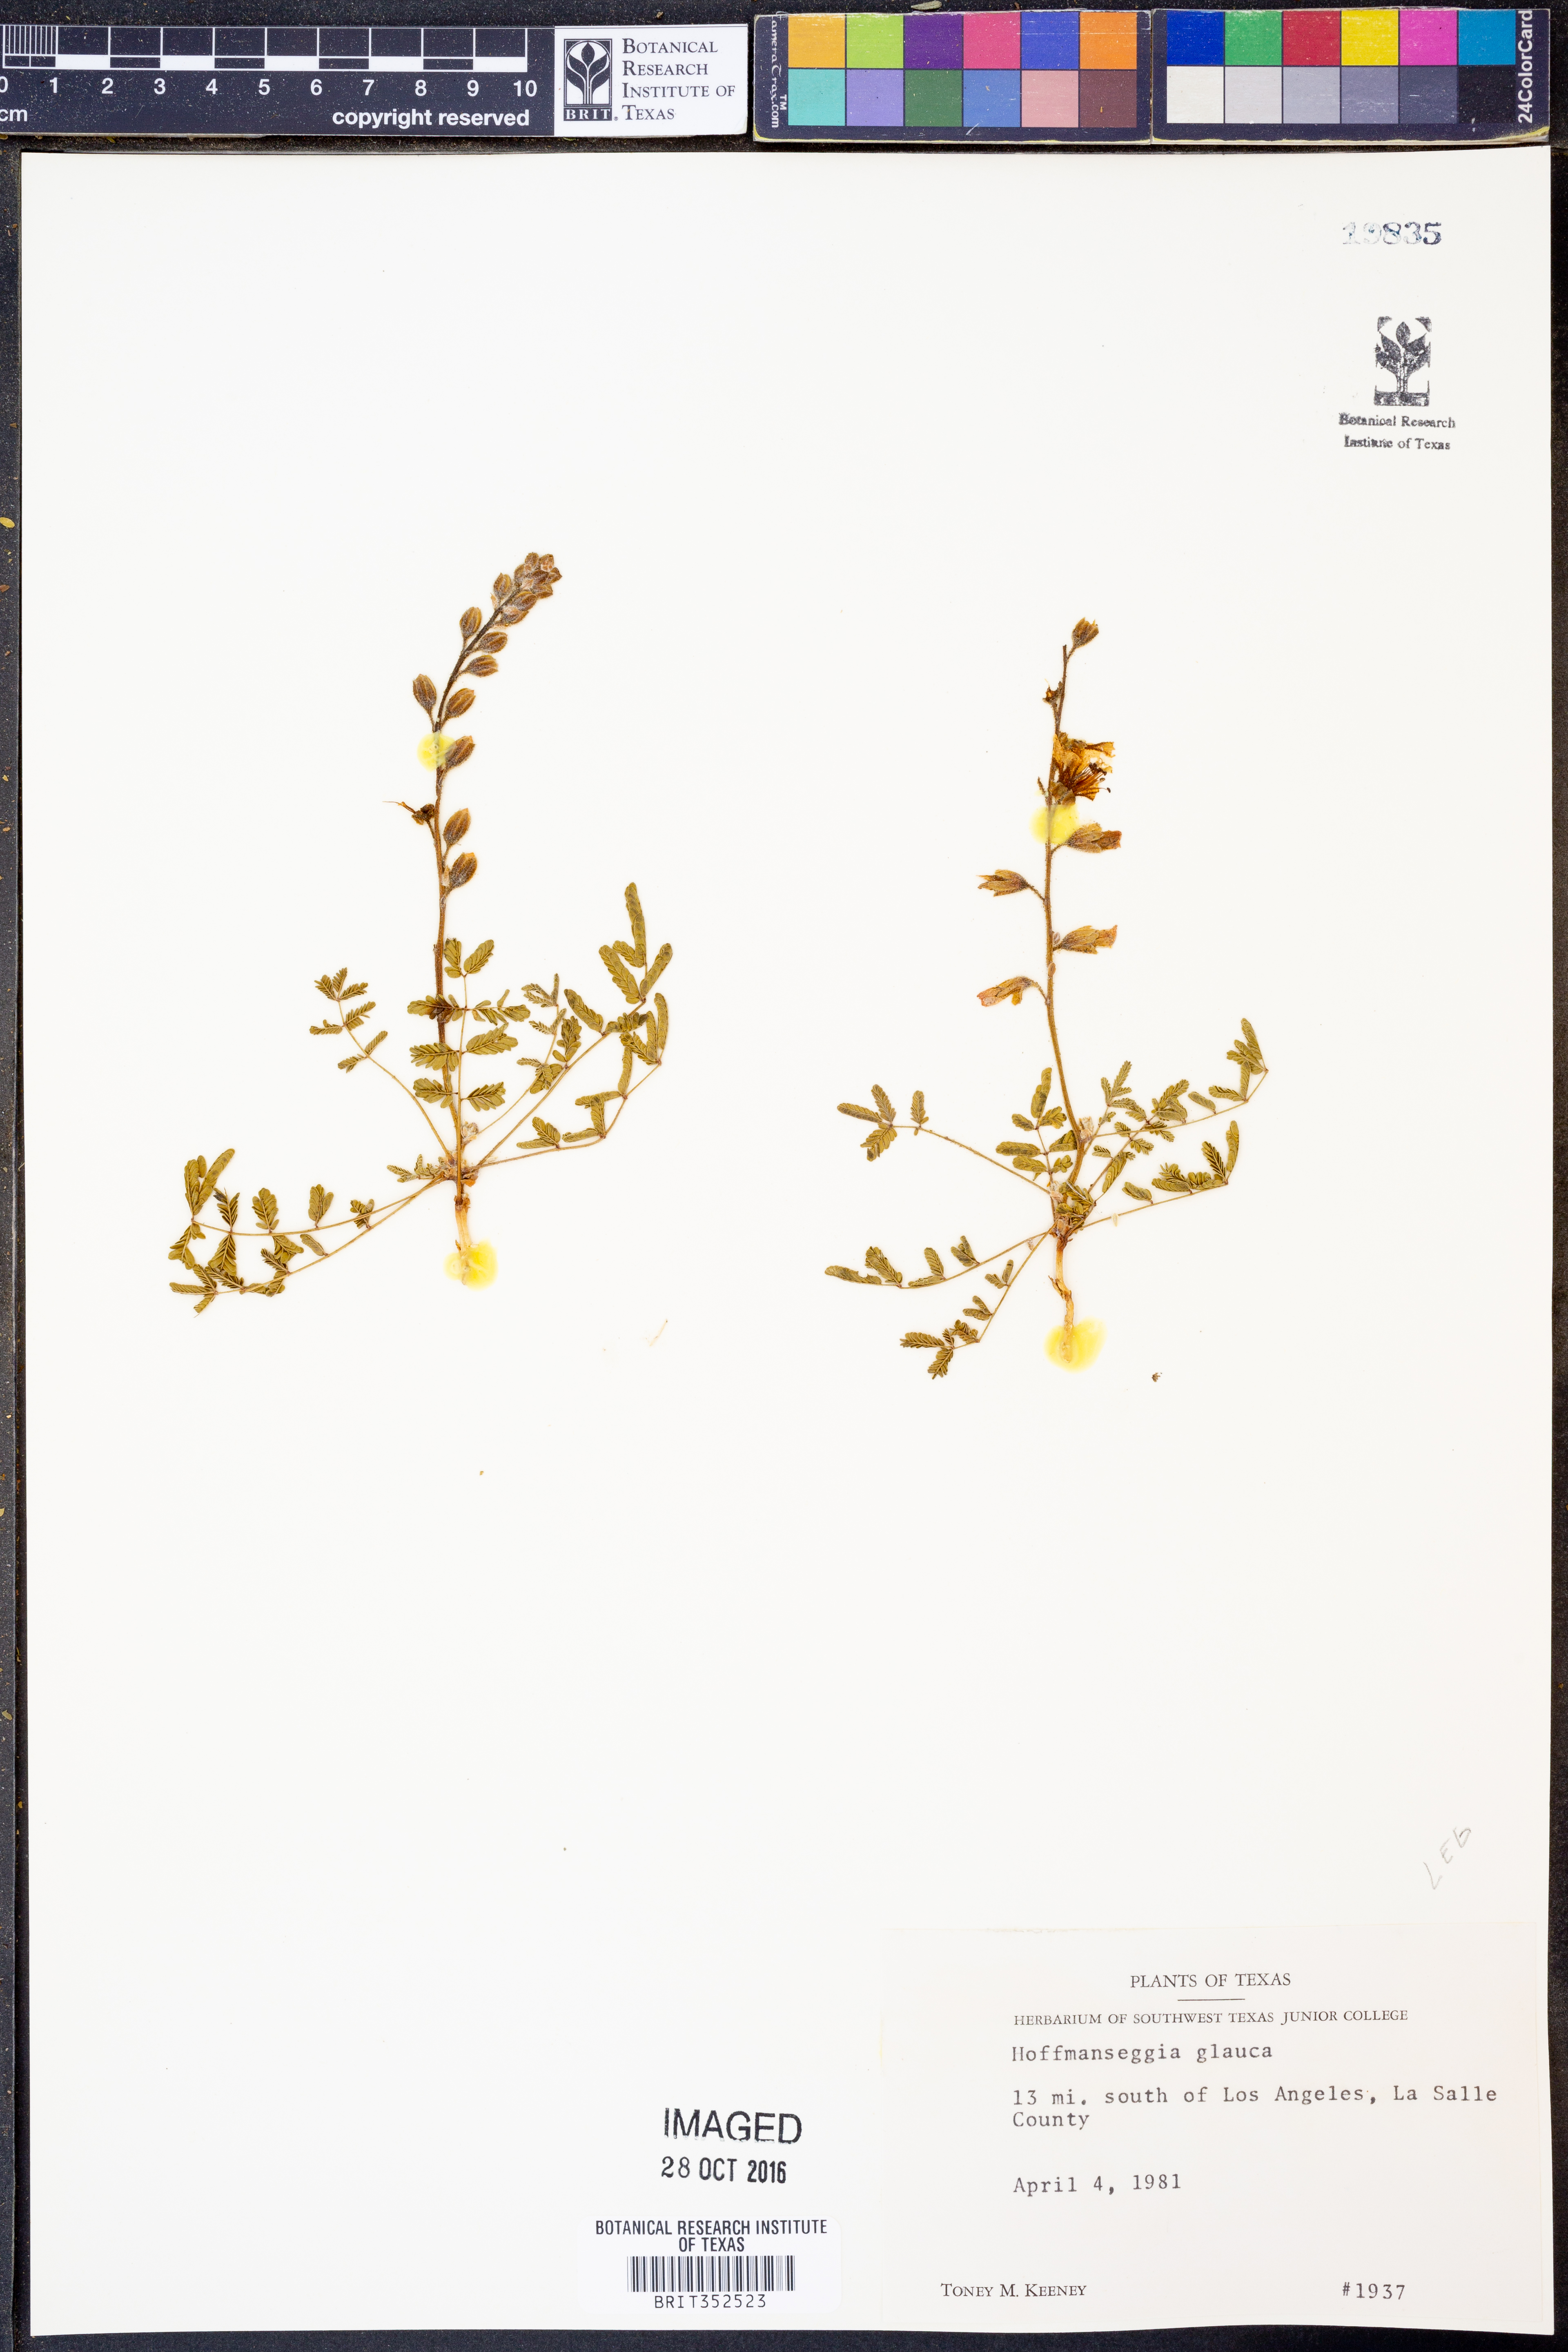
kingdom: Plantae
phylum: Tracheophyta
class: Magnoliopsida
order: Fabales
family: Fabaceae
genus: Hoffmannseggia
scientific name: Hoffmannseggia glauca
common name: Pignut
